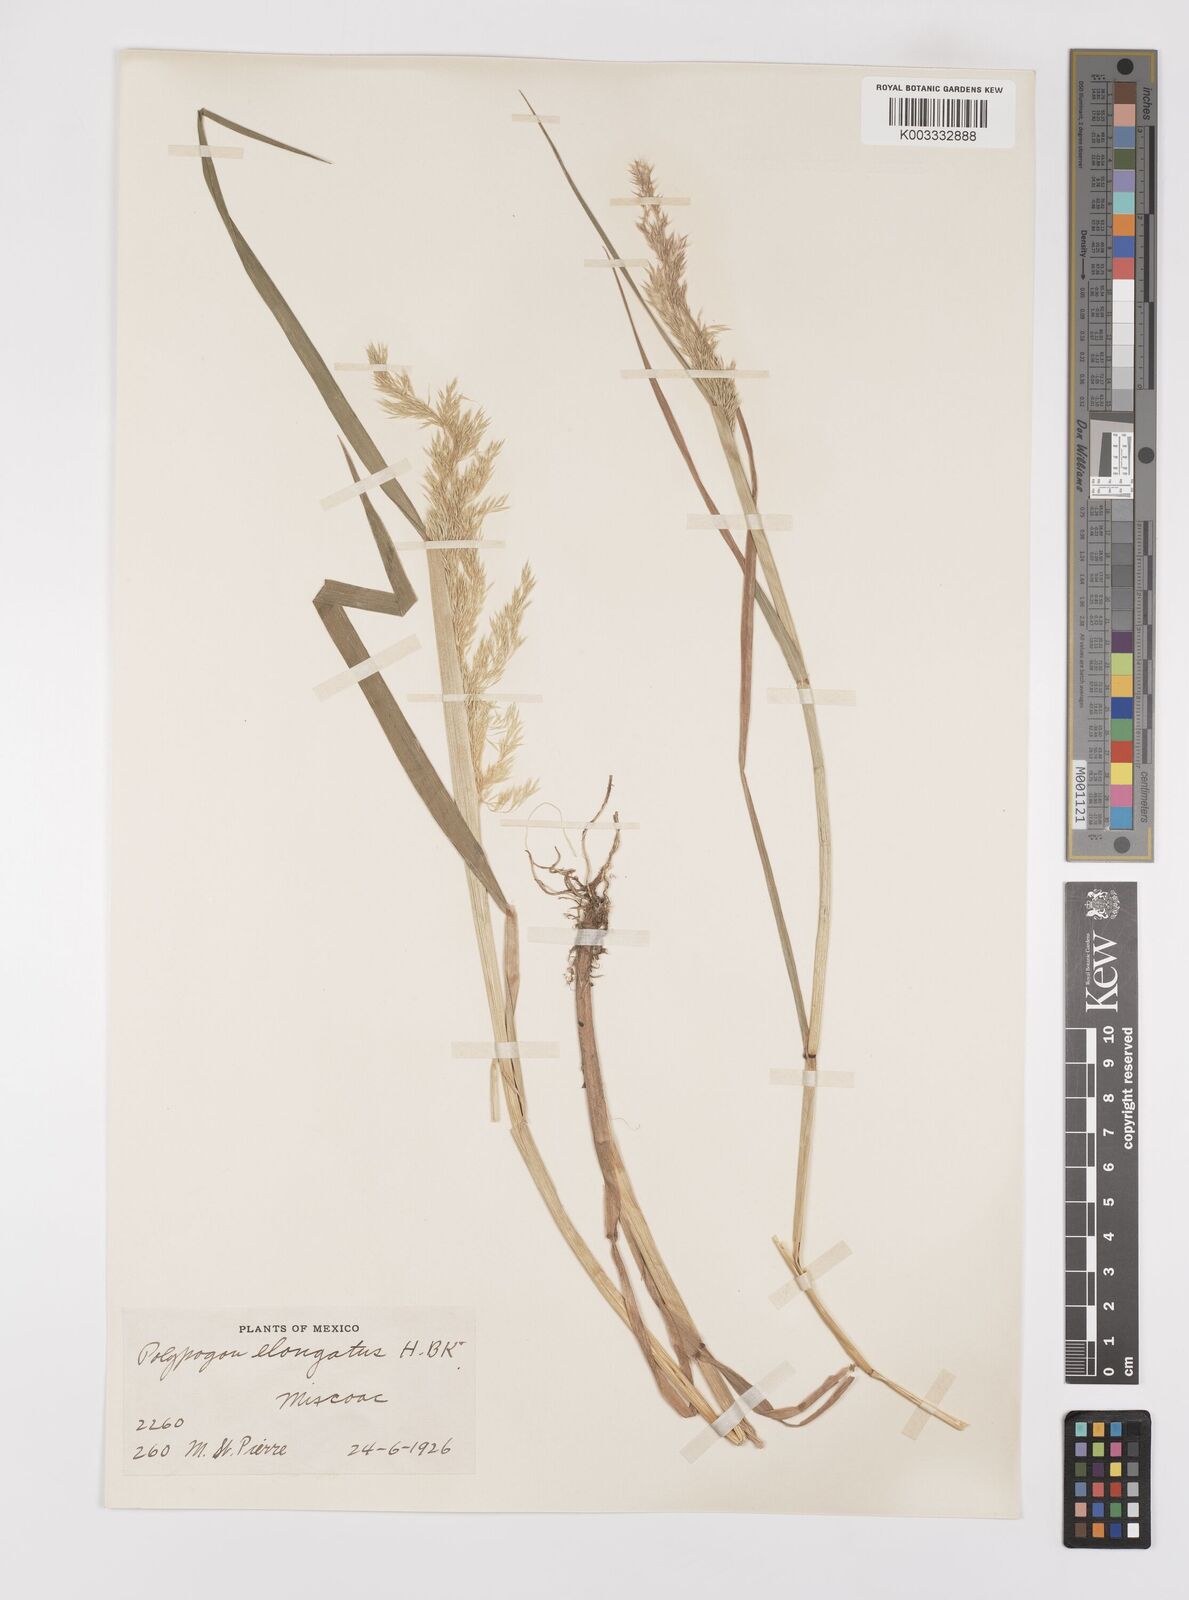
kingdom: Plantae
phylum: Tracheophyta
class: Liliopsida
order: Poales
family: Poaceae
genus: Polypogon
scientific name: Polypogon elongatus
